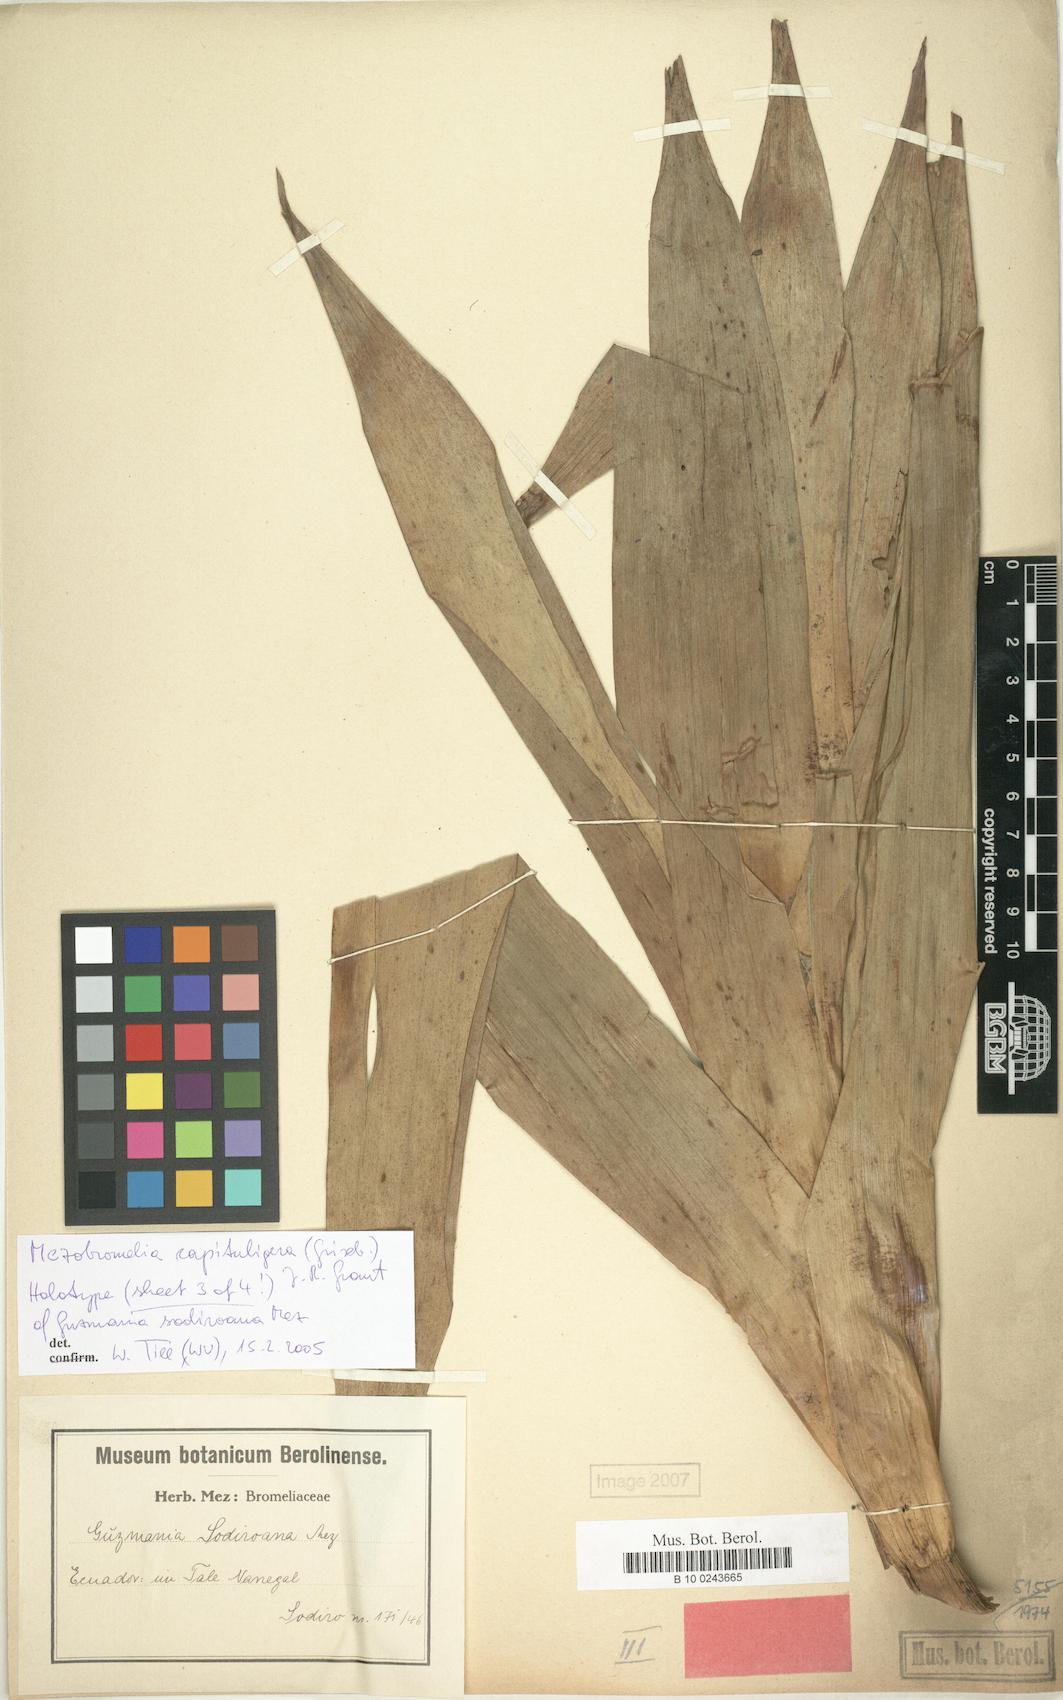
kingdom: Plantae
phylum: Tracheophyta
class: Liliopsida
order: Poales
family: Bromeliaceae
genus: Cipuropsis
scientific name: Cipuropsis capituligera
